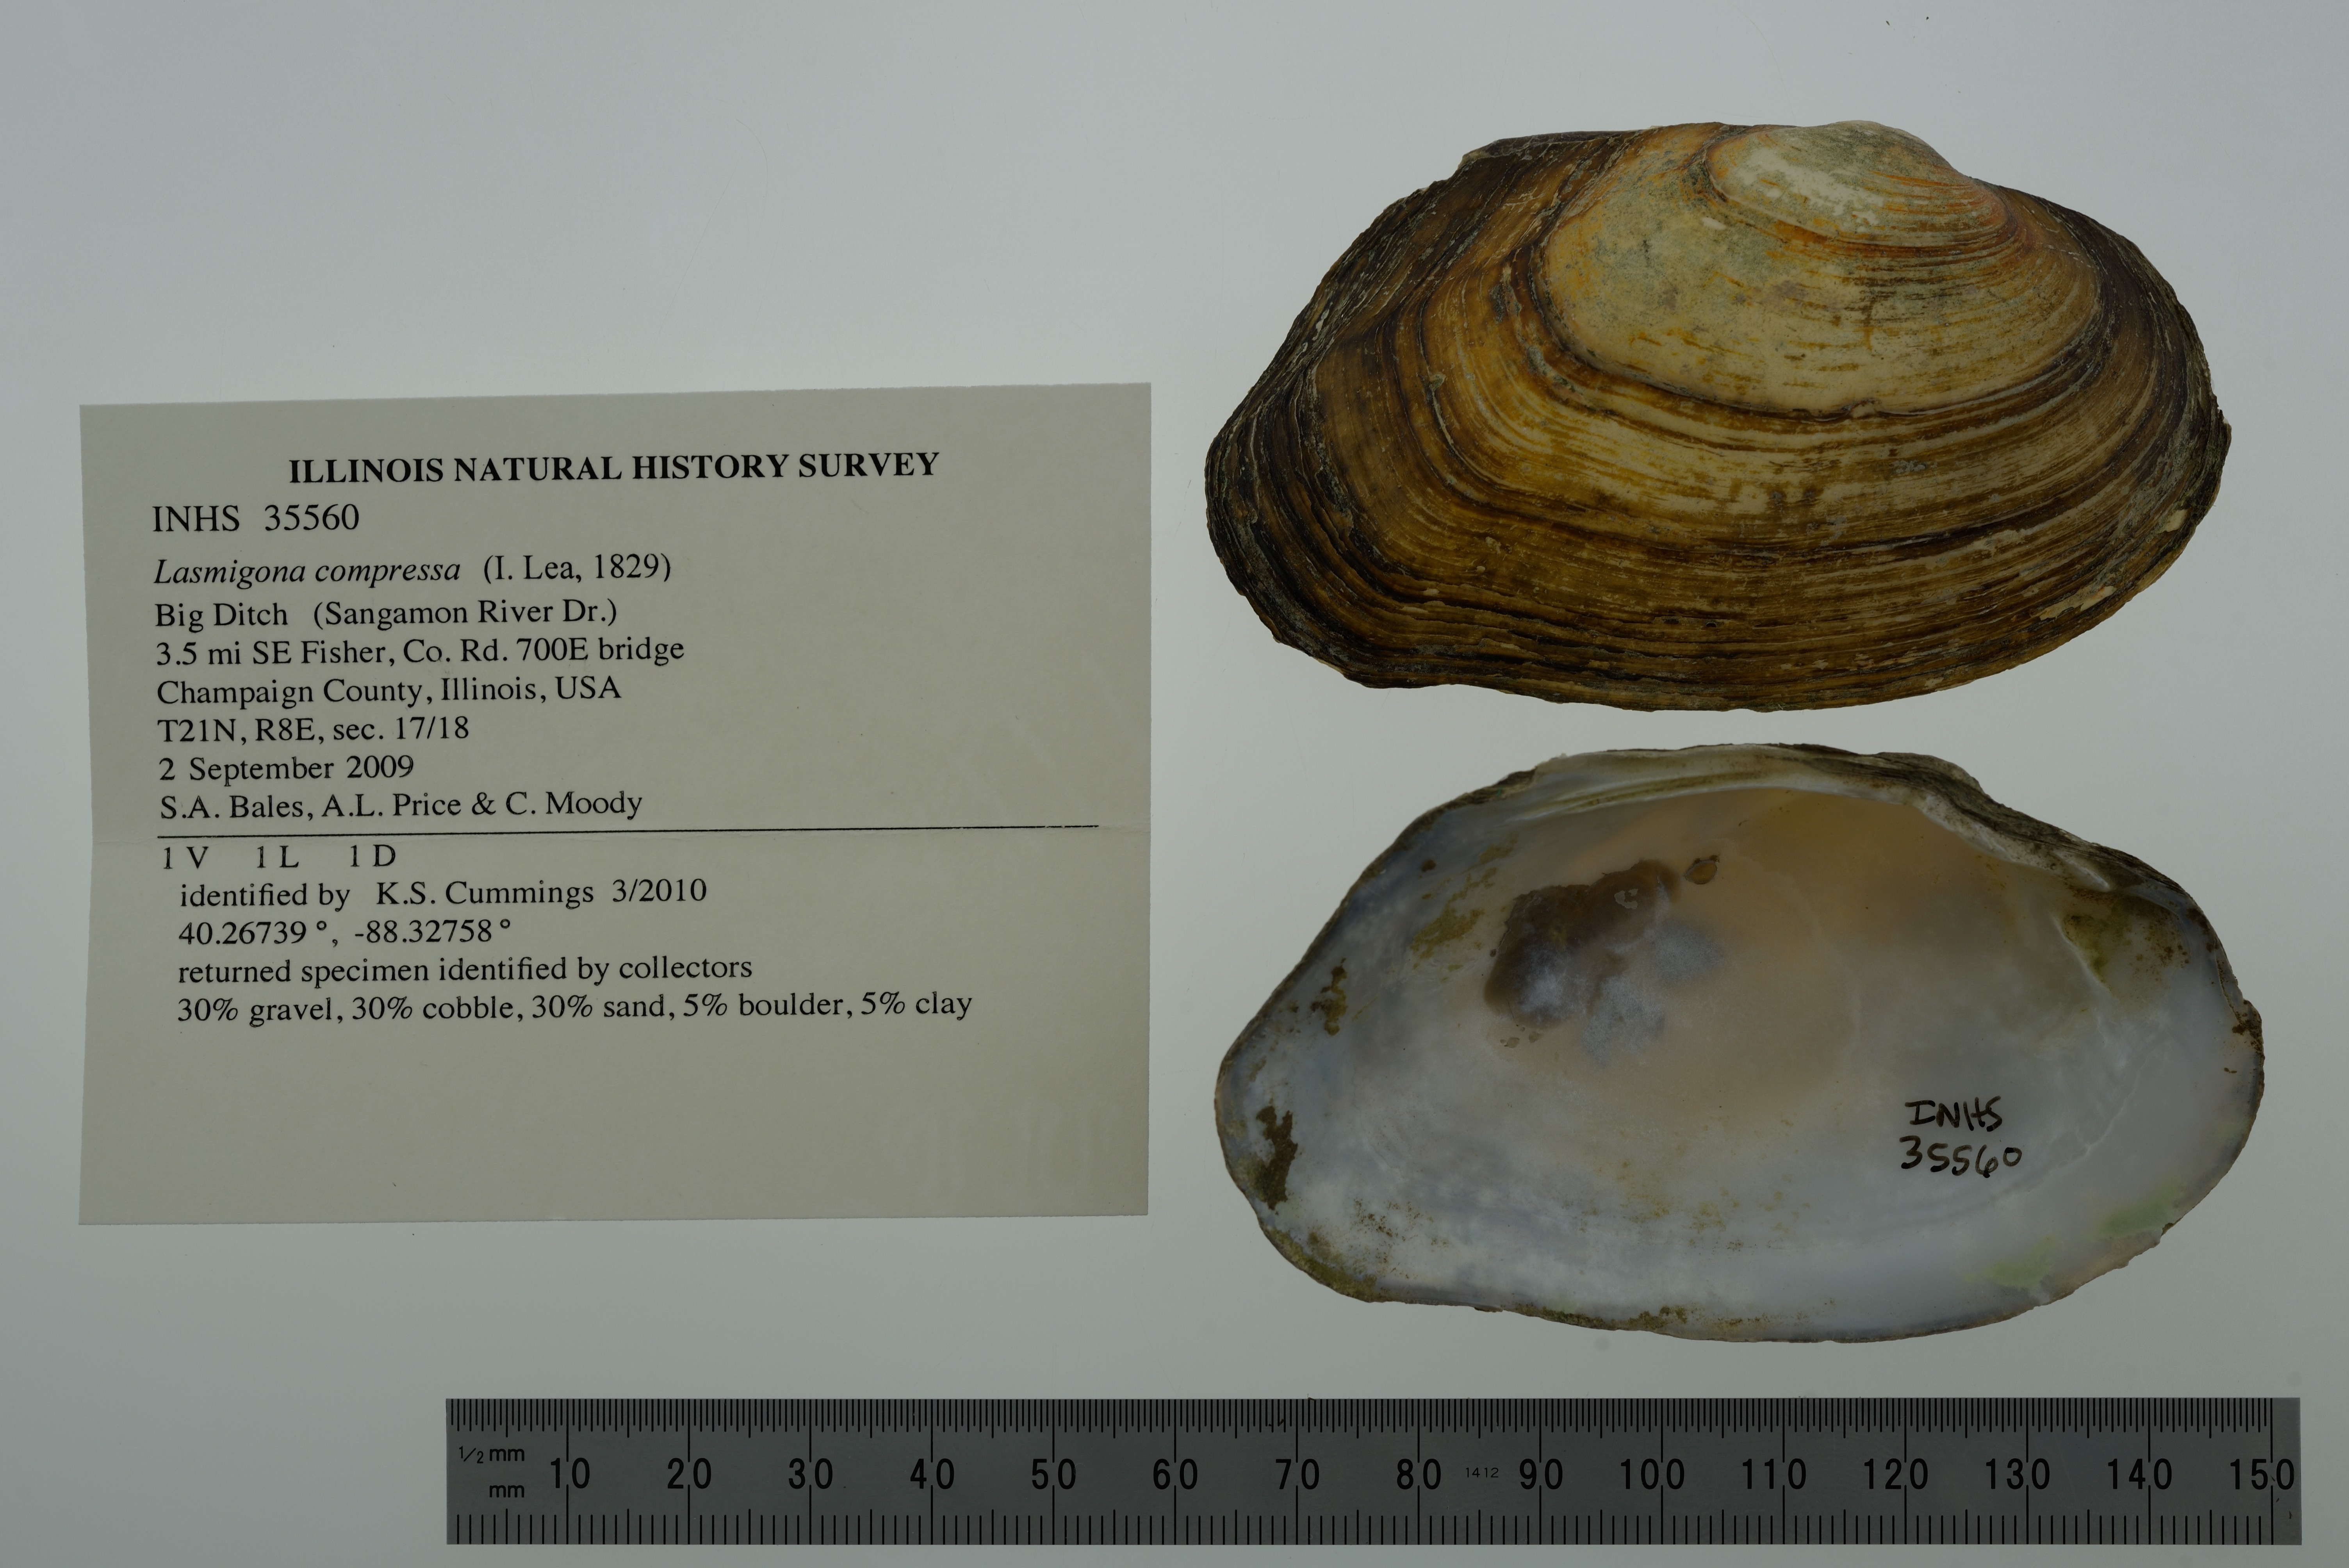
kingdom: Animalia
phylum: Mollusca
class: Bivalvia
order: Unionida
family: Unionidae
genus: Lasmigona
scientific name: Lasmigona compressa
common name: Creek heelsplitter
